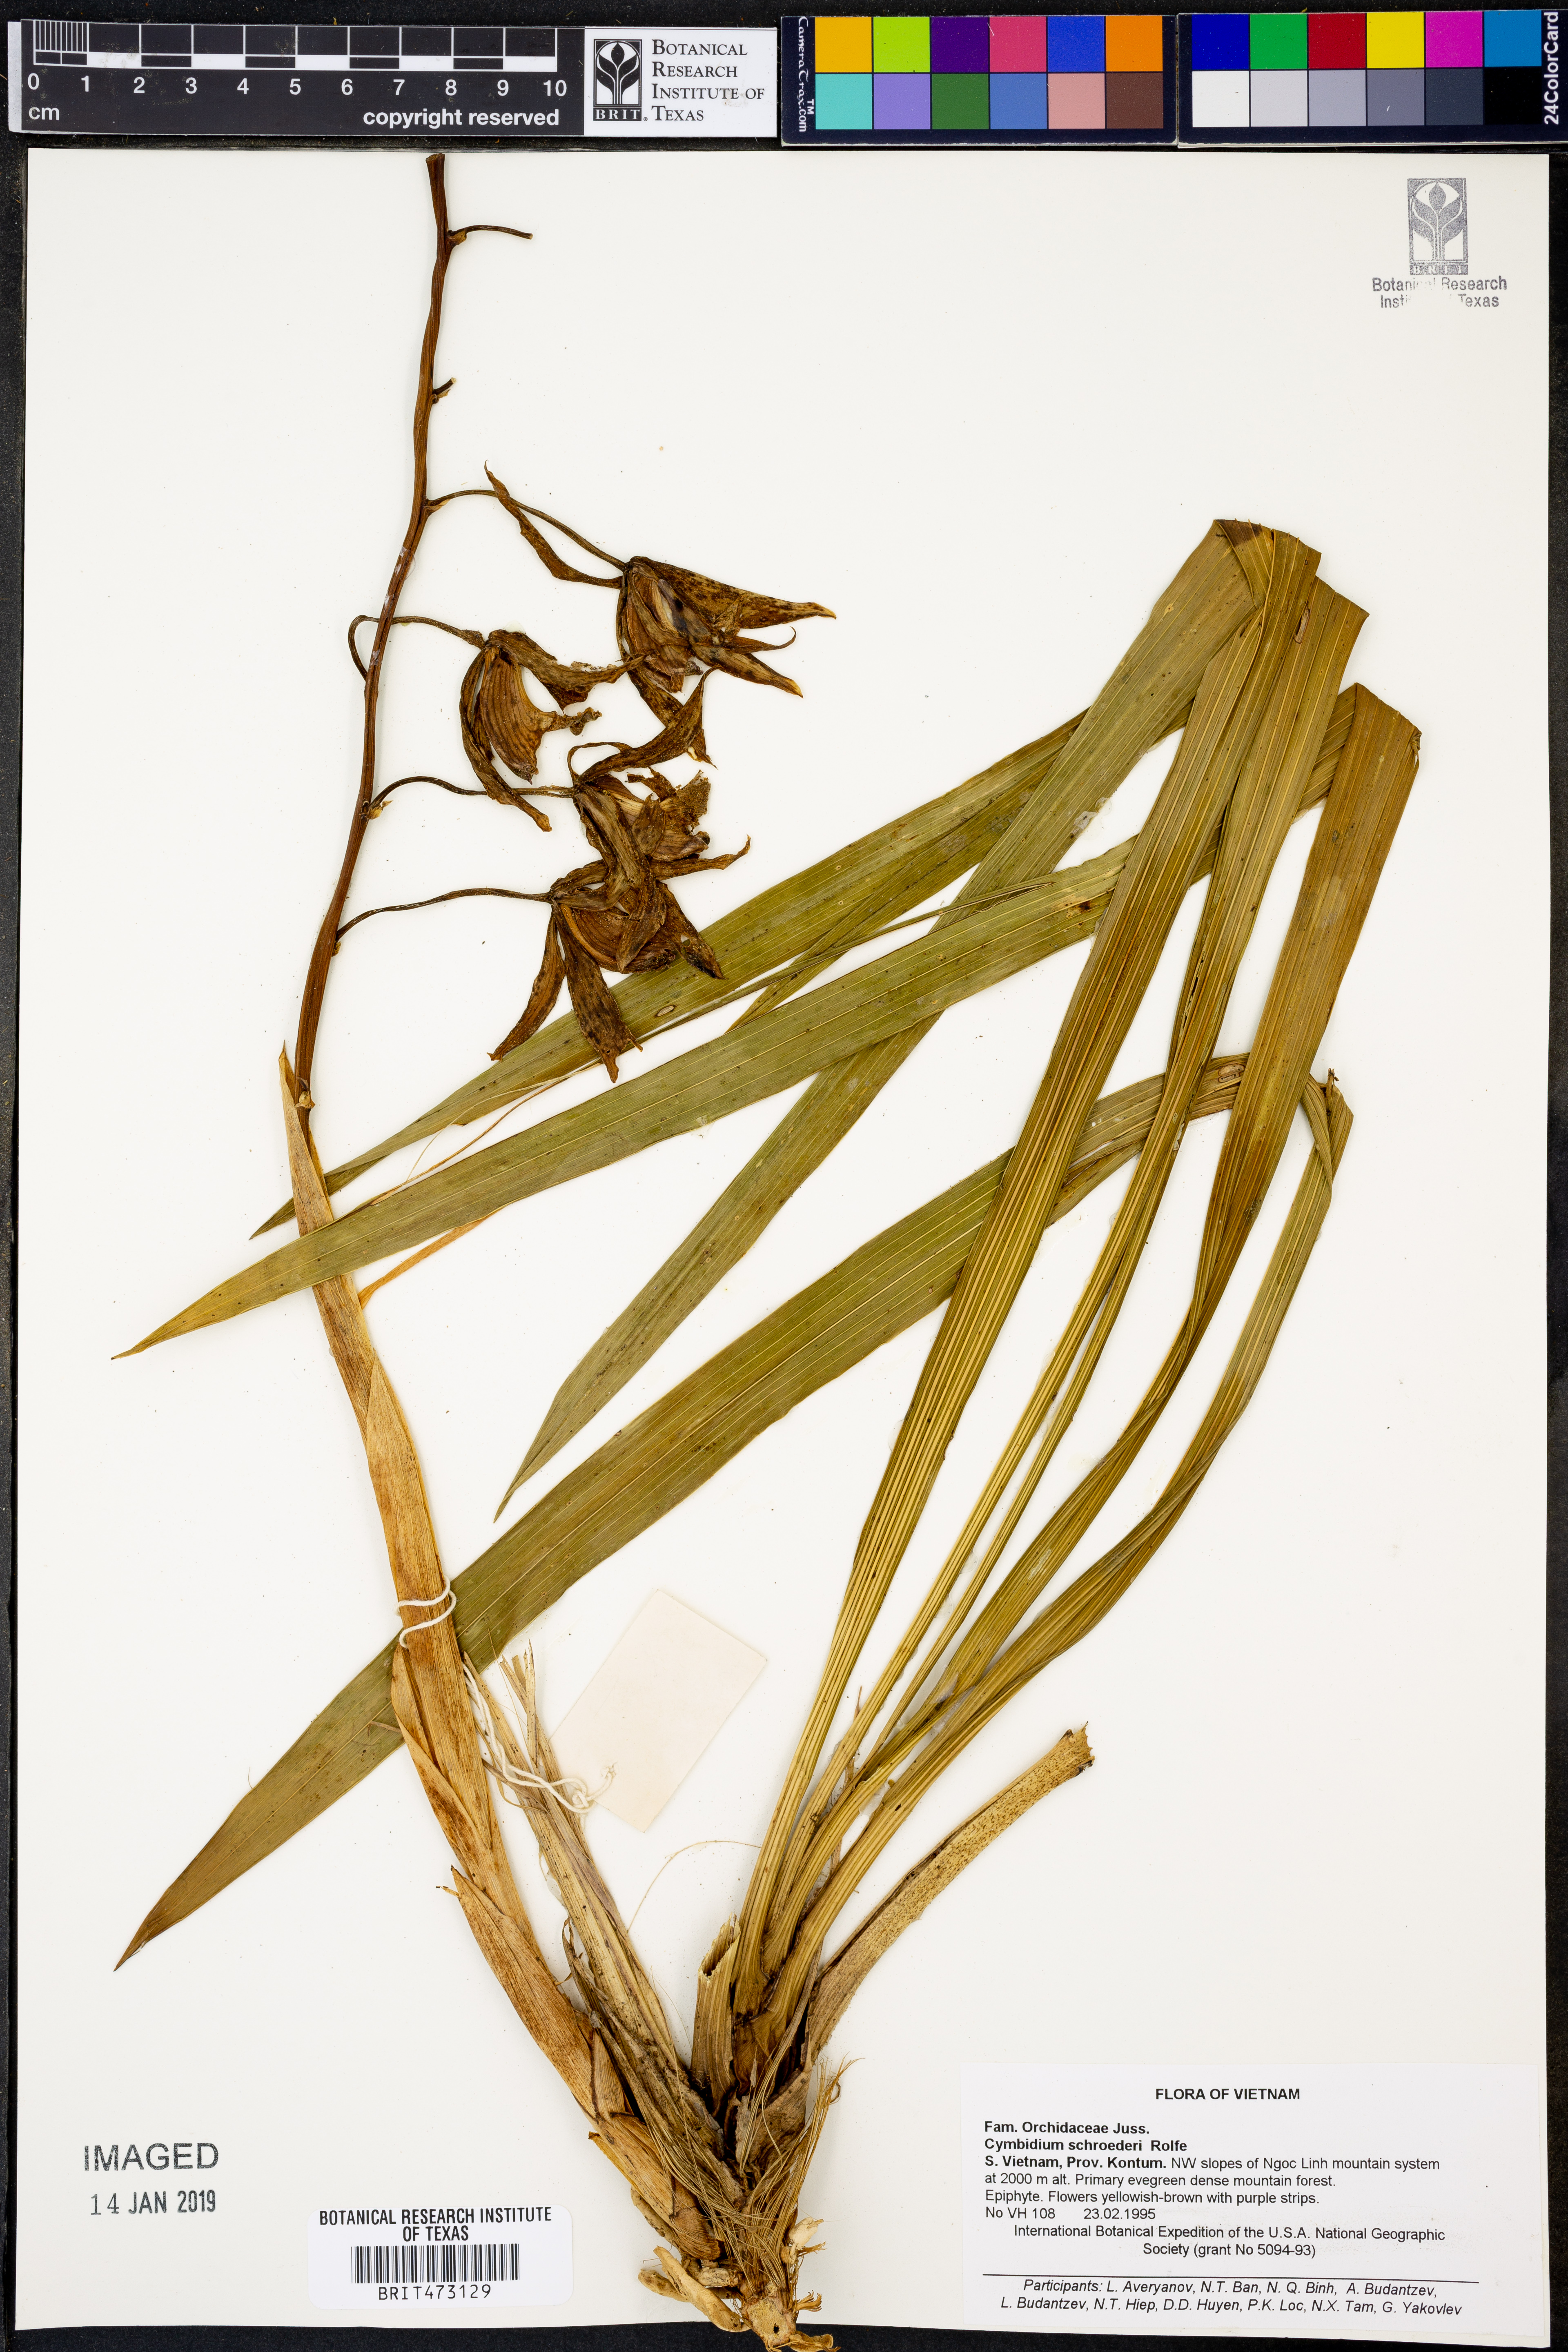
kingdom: Plantae
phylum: Tracheophyta
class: Liliopsida
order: Asparagales
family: Orchidaceae
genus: Cymbidium
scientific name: Cymbidium schroederi
